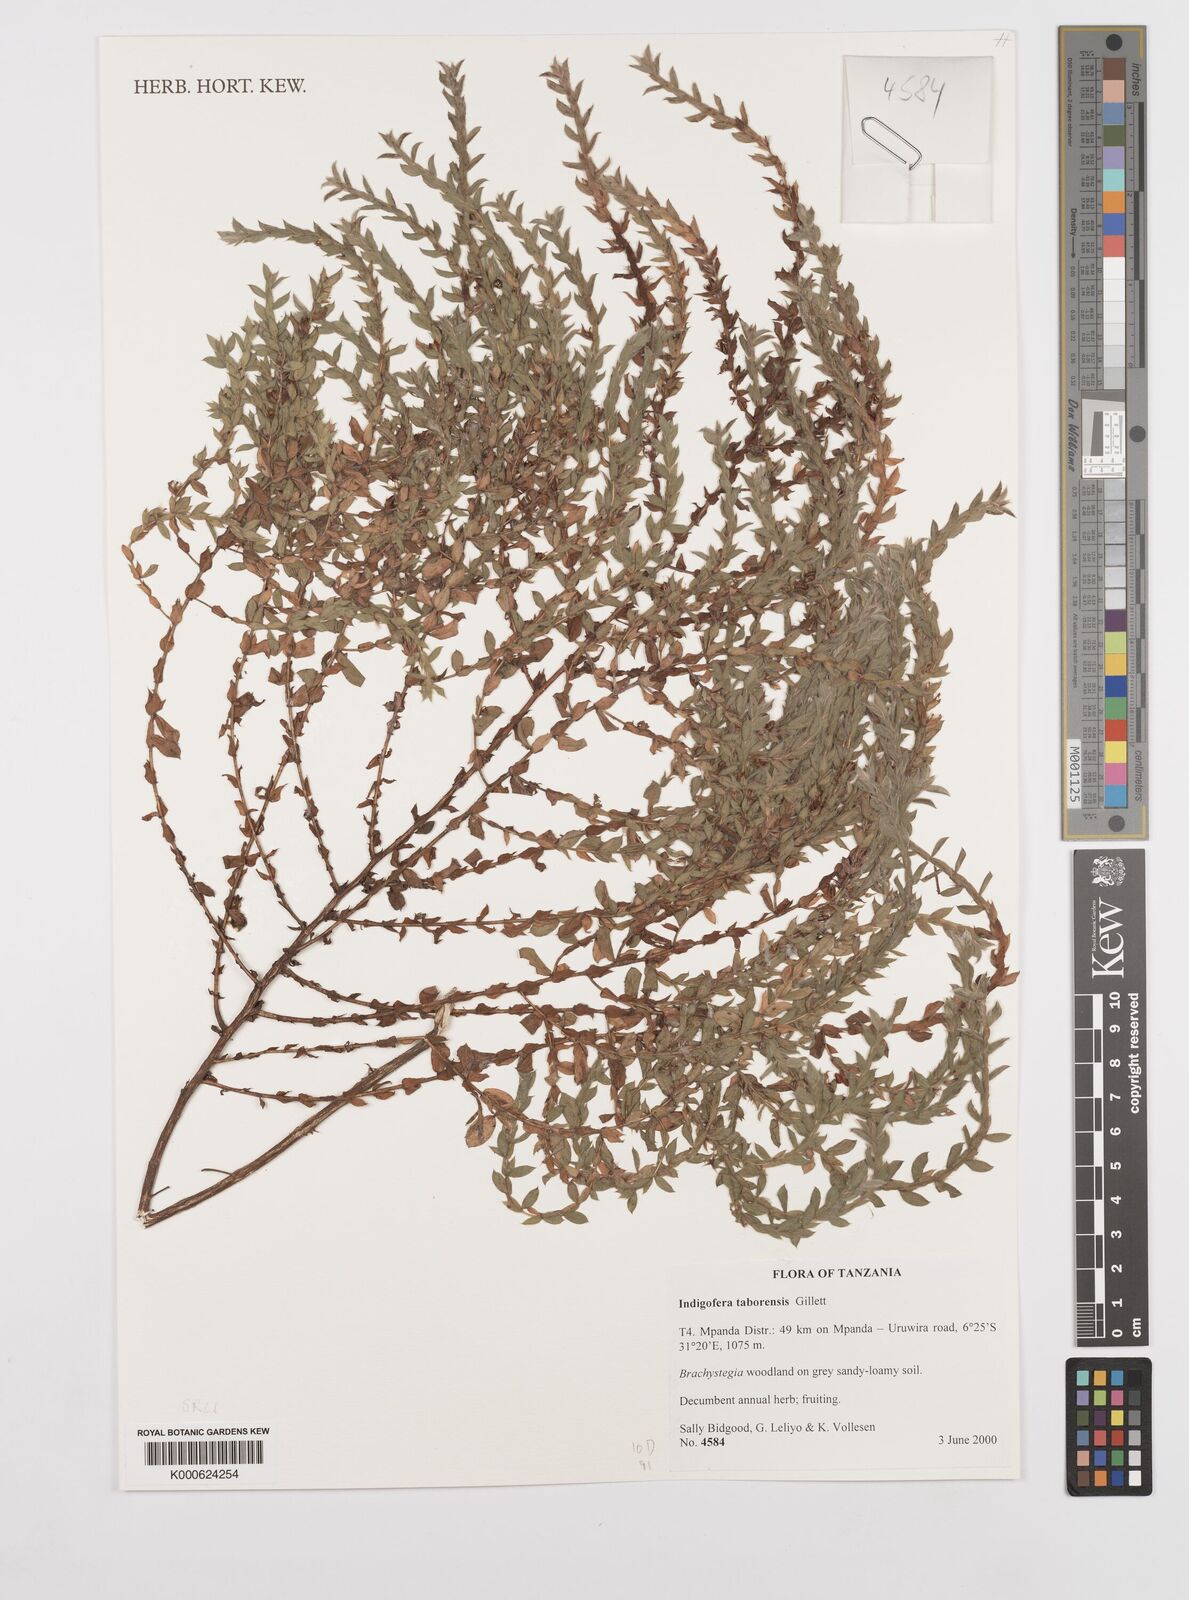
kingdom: Plantae
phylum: Tracheophyta
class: Magnoliopsida
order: Fabales
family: Fabaceae
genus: Indigofera
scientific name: Indigofera taborensis
